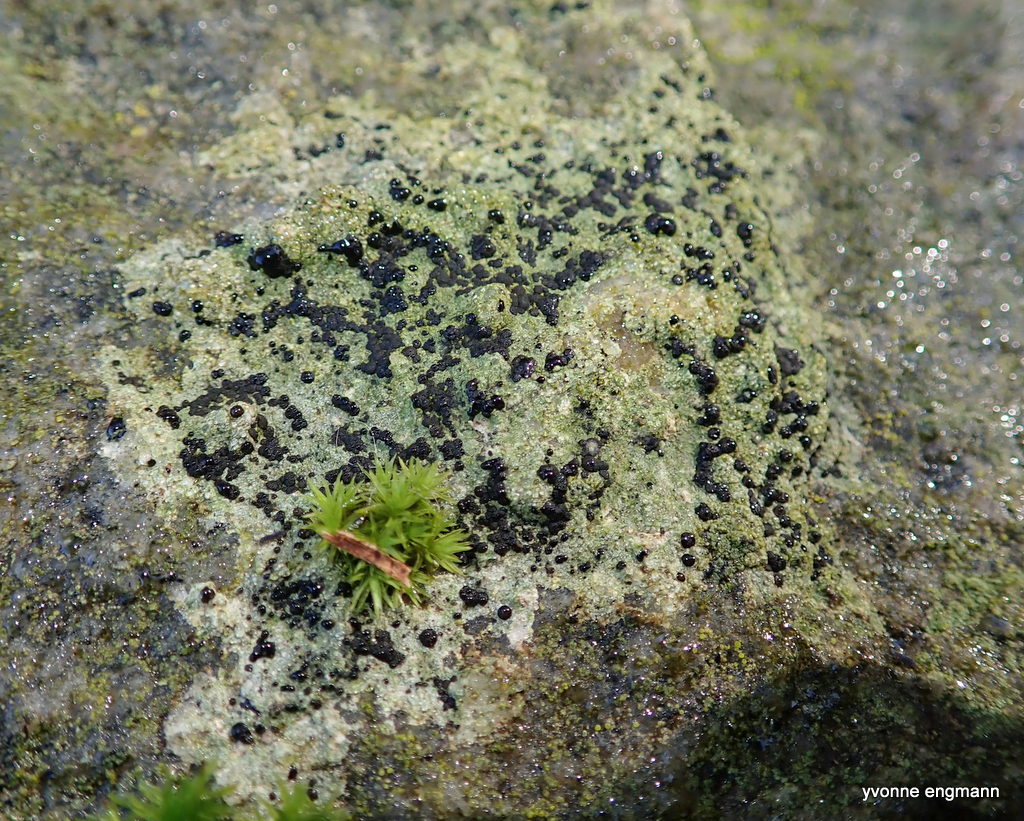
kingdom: Fungi
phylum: Ascomycota
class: Lecanoromycetes
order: Lecanorales
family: Lecanoraceae
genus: Lecidella
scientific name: Lecidella scabra
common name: skurvet skivelav
